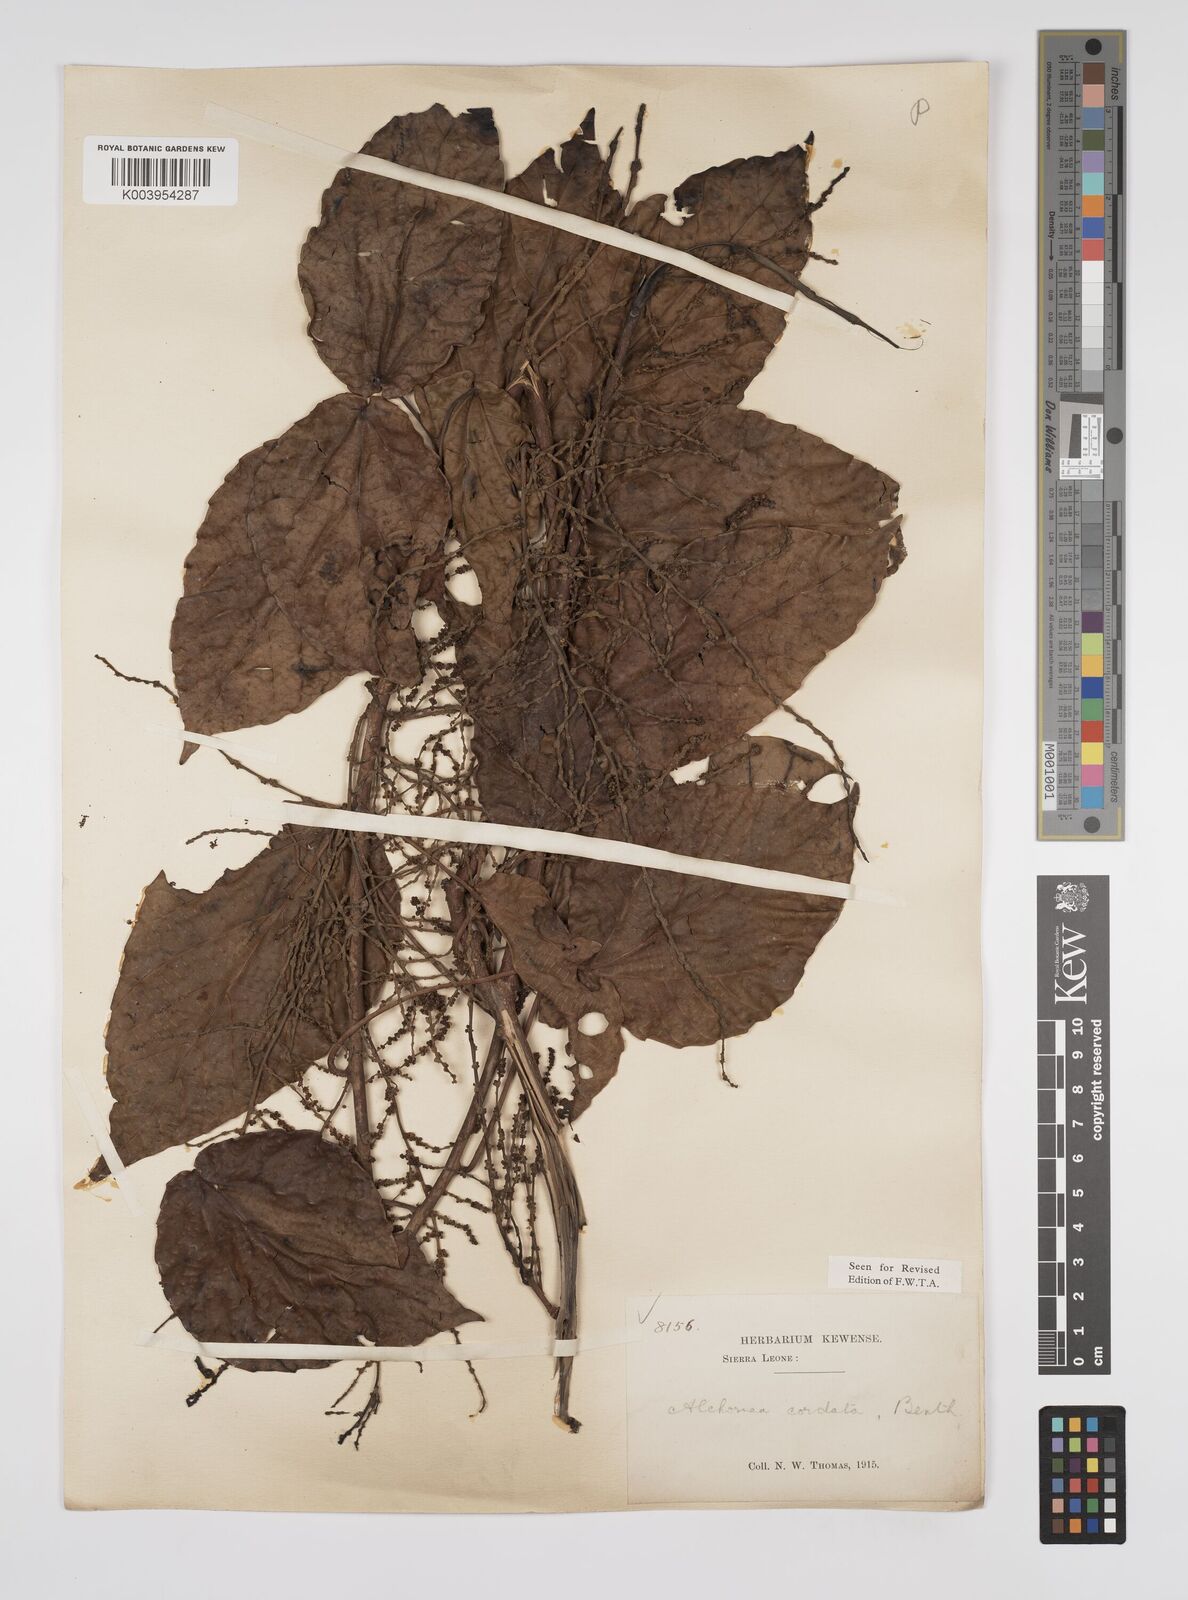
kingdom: Plantae
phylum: Tracheophyta
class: Magnoliopsida
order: Malpighiales
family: Euphorbiaceae
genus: Alchornea
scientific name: Alchornea cordifolia
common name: Christmasbush
